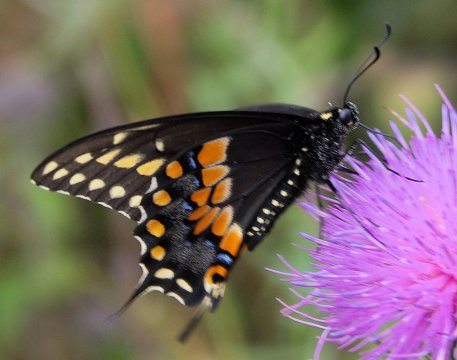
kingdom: Animalia
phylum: Arthropoda
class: Insecta
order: Lepidoptera
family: Papilionidae
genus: Papilio
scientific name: Papilio polyxenes
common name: Black Swallowtail
